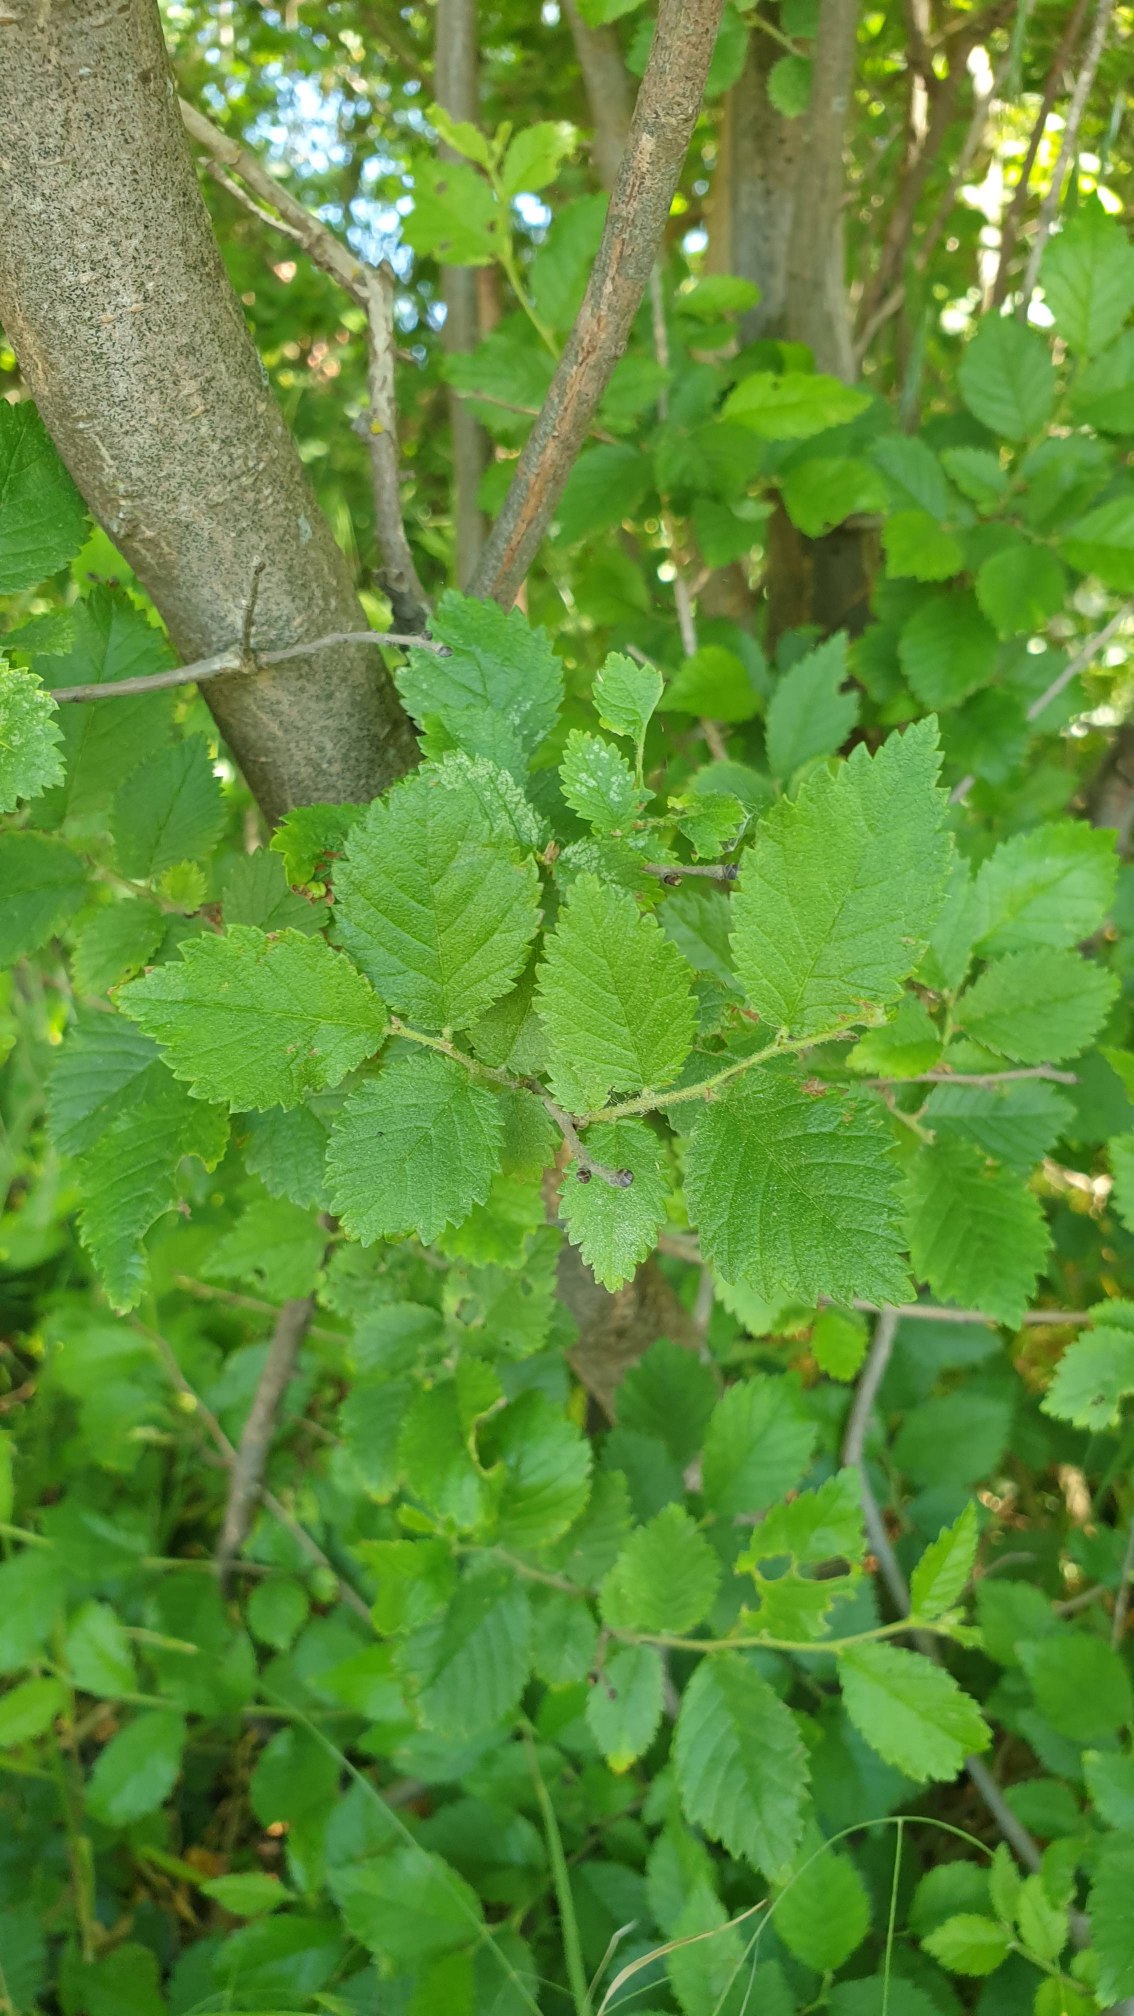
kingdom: Plantae
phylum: Tracheophyta
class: Magnoliopsida
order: Rosales
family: Ulmaceae
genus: Ulmus
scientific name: Ulmus minor
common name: Småbladet elm
